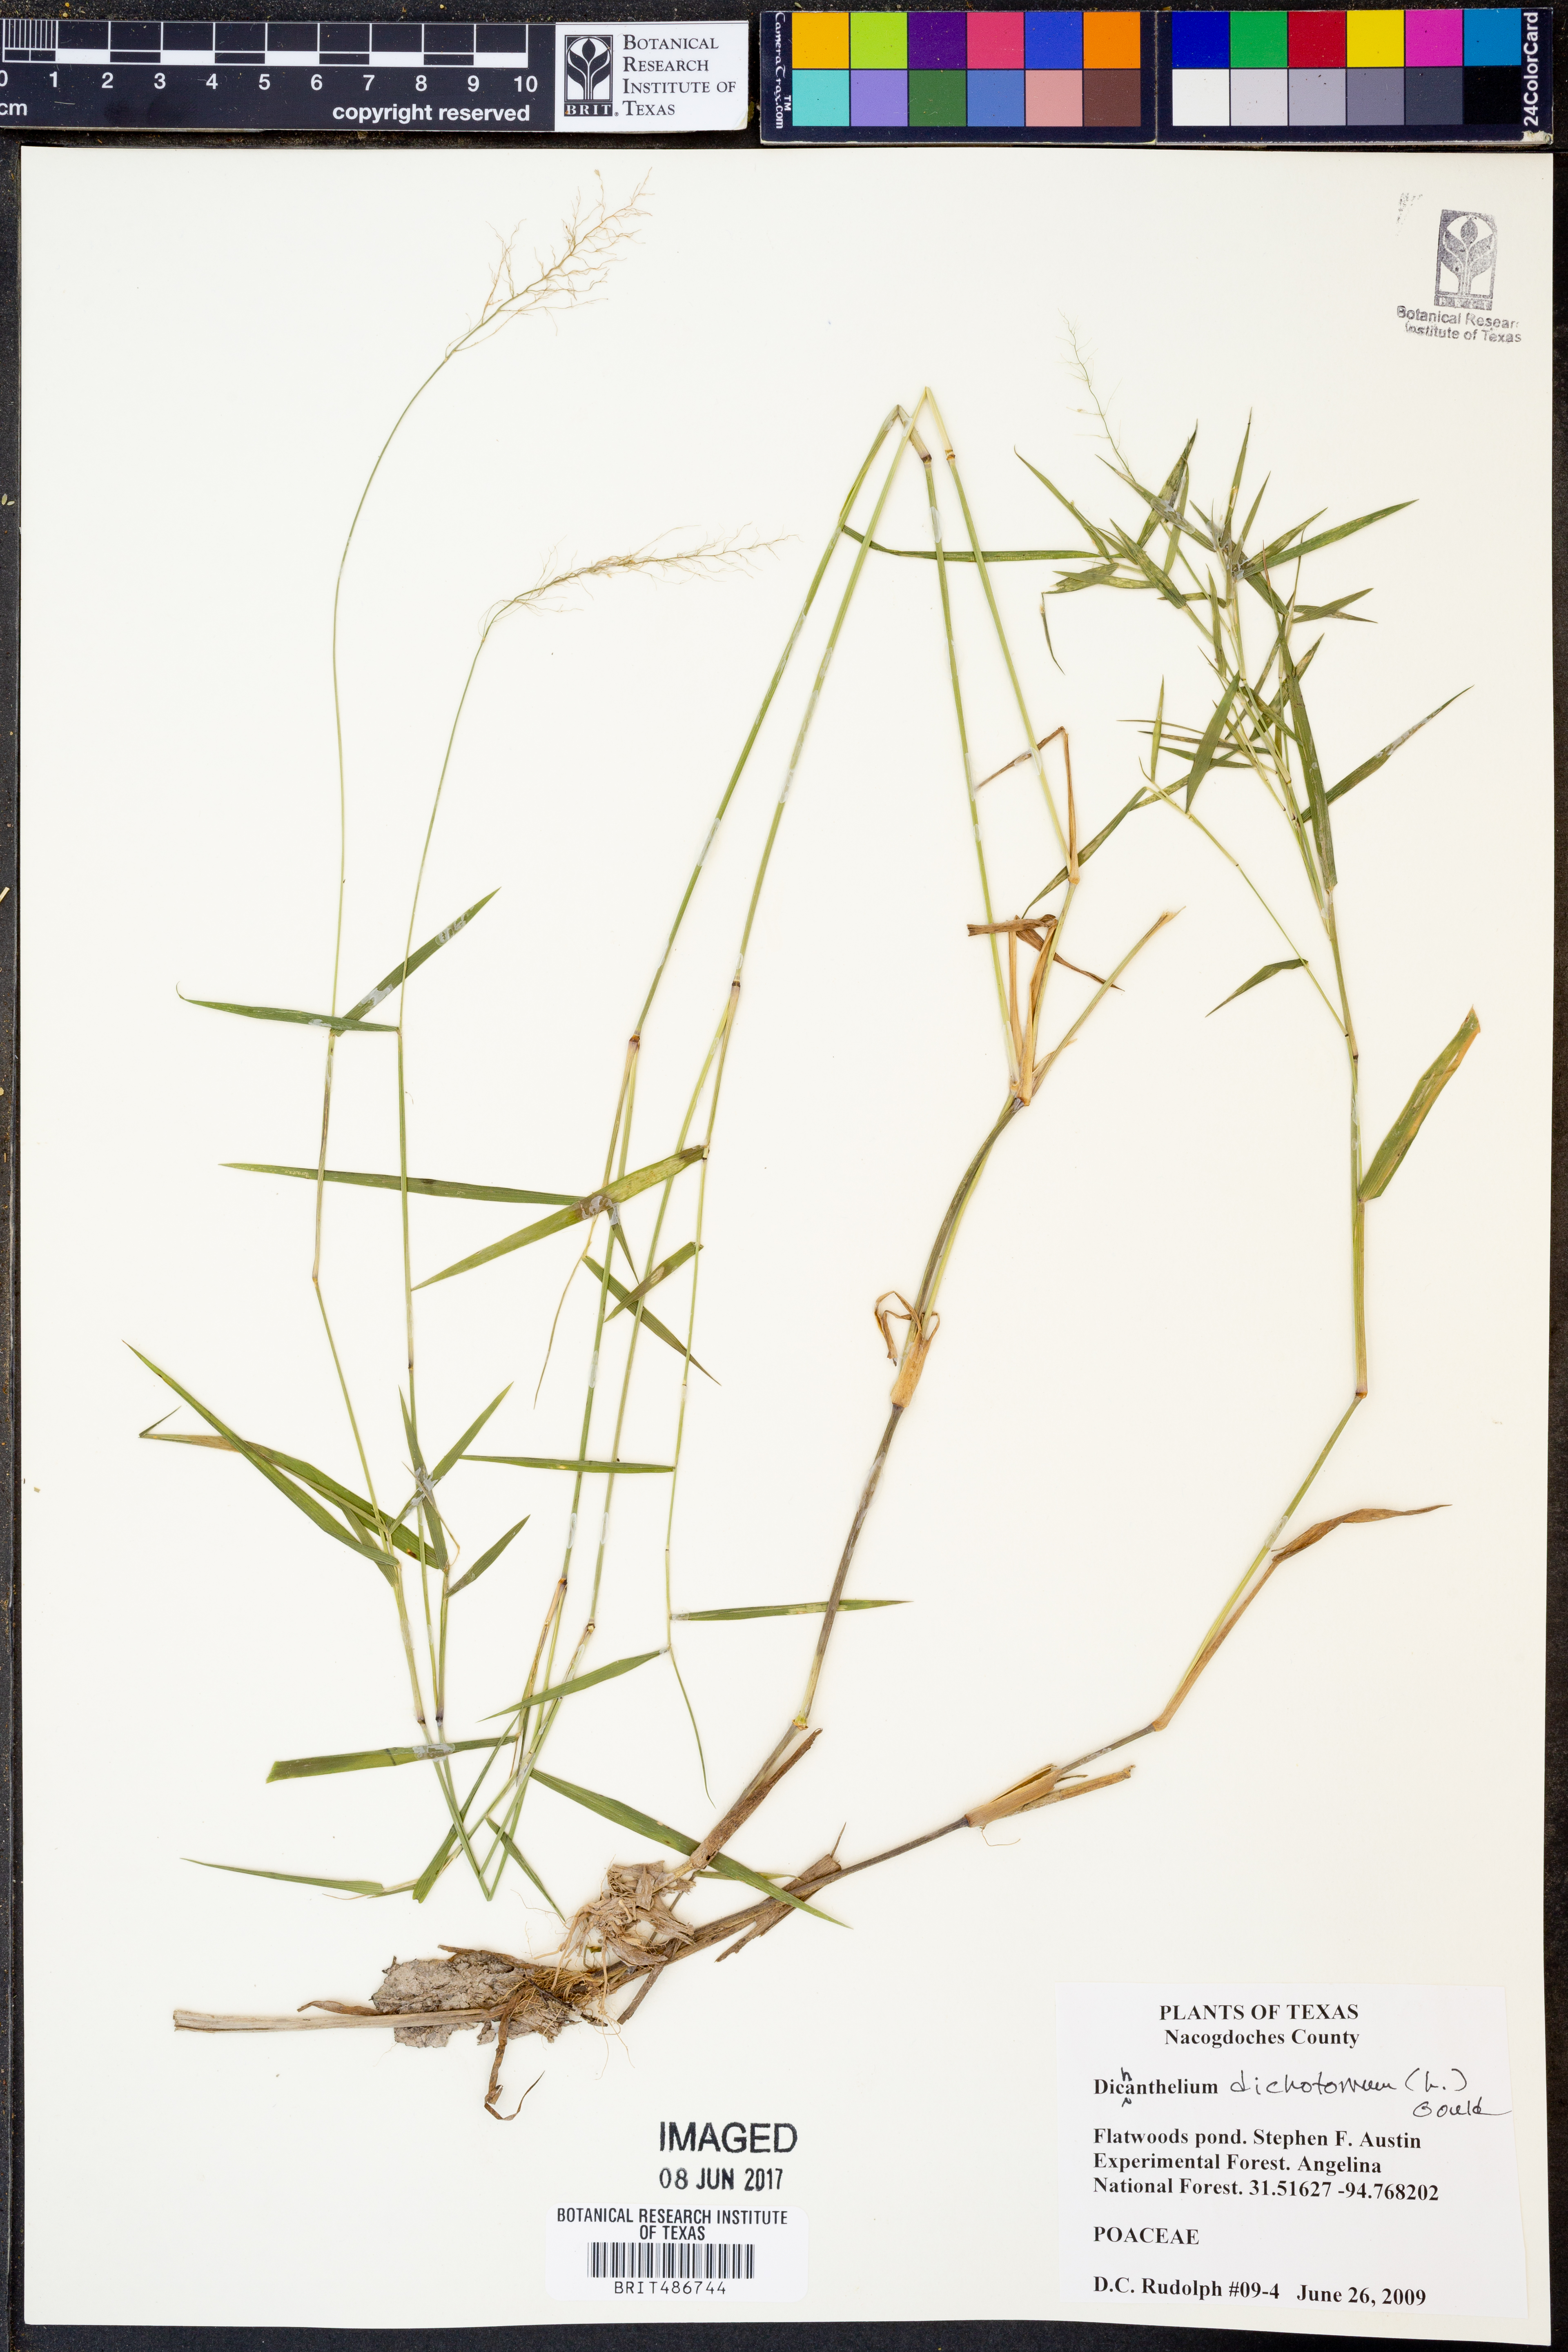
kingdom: Plantae
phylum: Tracheophyta
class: Liliopsida
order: Poales
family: Poaceae
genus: Dichanthelium
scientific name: Dichanthelium dichotomum
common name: Cypress panicgrass
